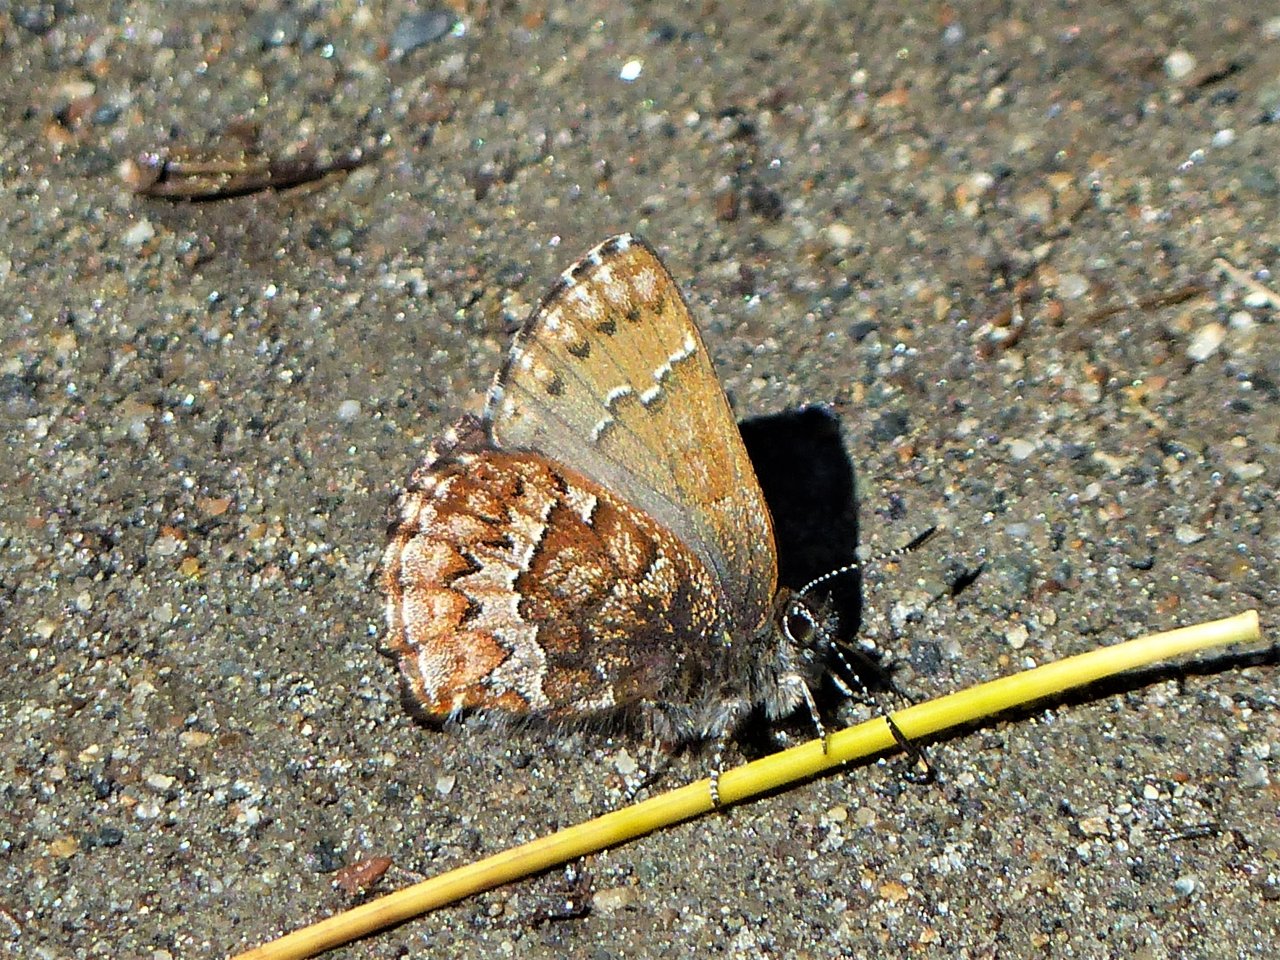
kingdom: Animalia
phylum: Arthropoda
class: Insecta
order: Lepidoptera
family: Lycaenidae
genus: Incisalia
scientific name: Incisalia niphon
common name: Eastern Pine Elfin
